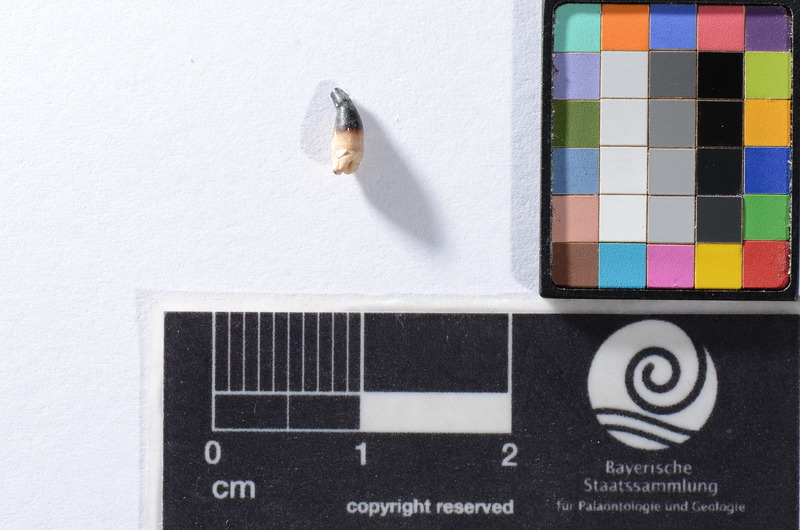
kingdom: Animalia
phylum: Chordata
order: Cypriniformes
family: Cyprinidae
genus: Capitodus
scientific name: Capitodus
